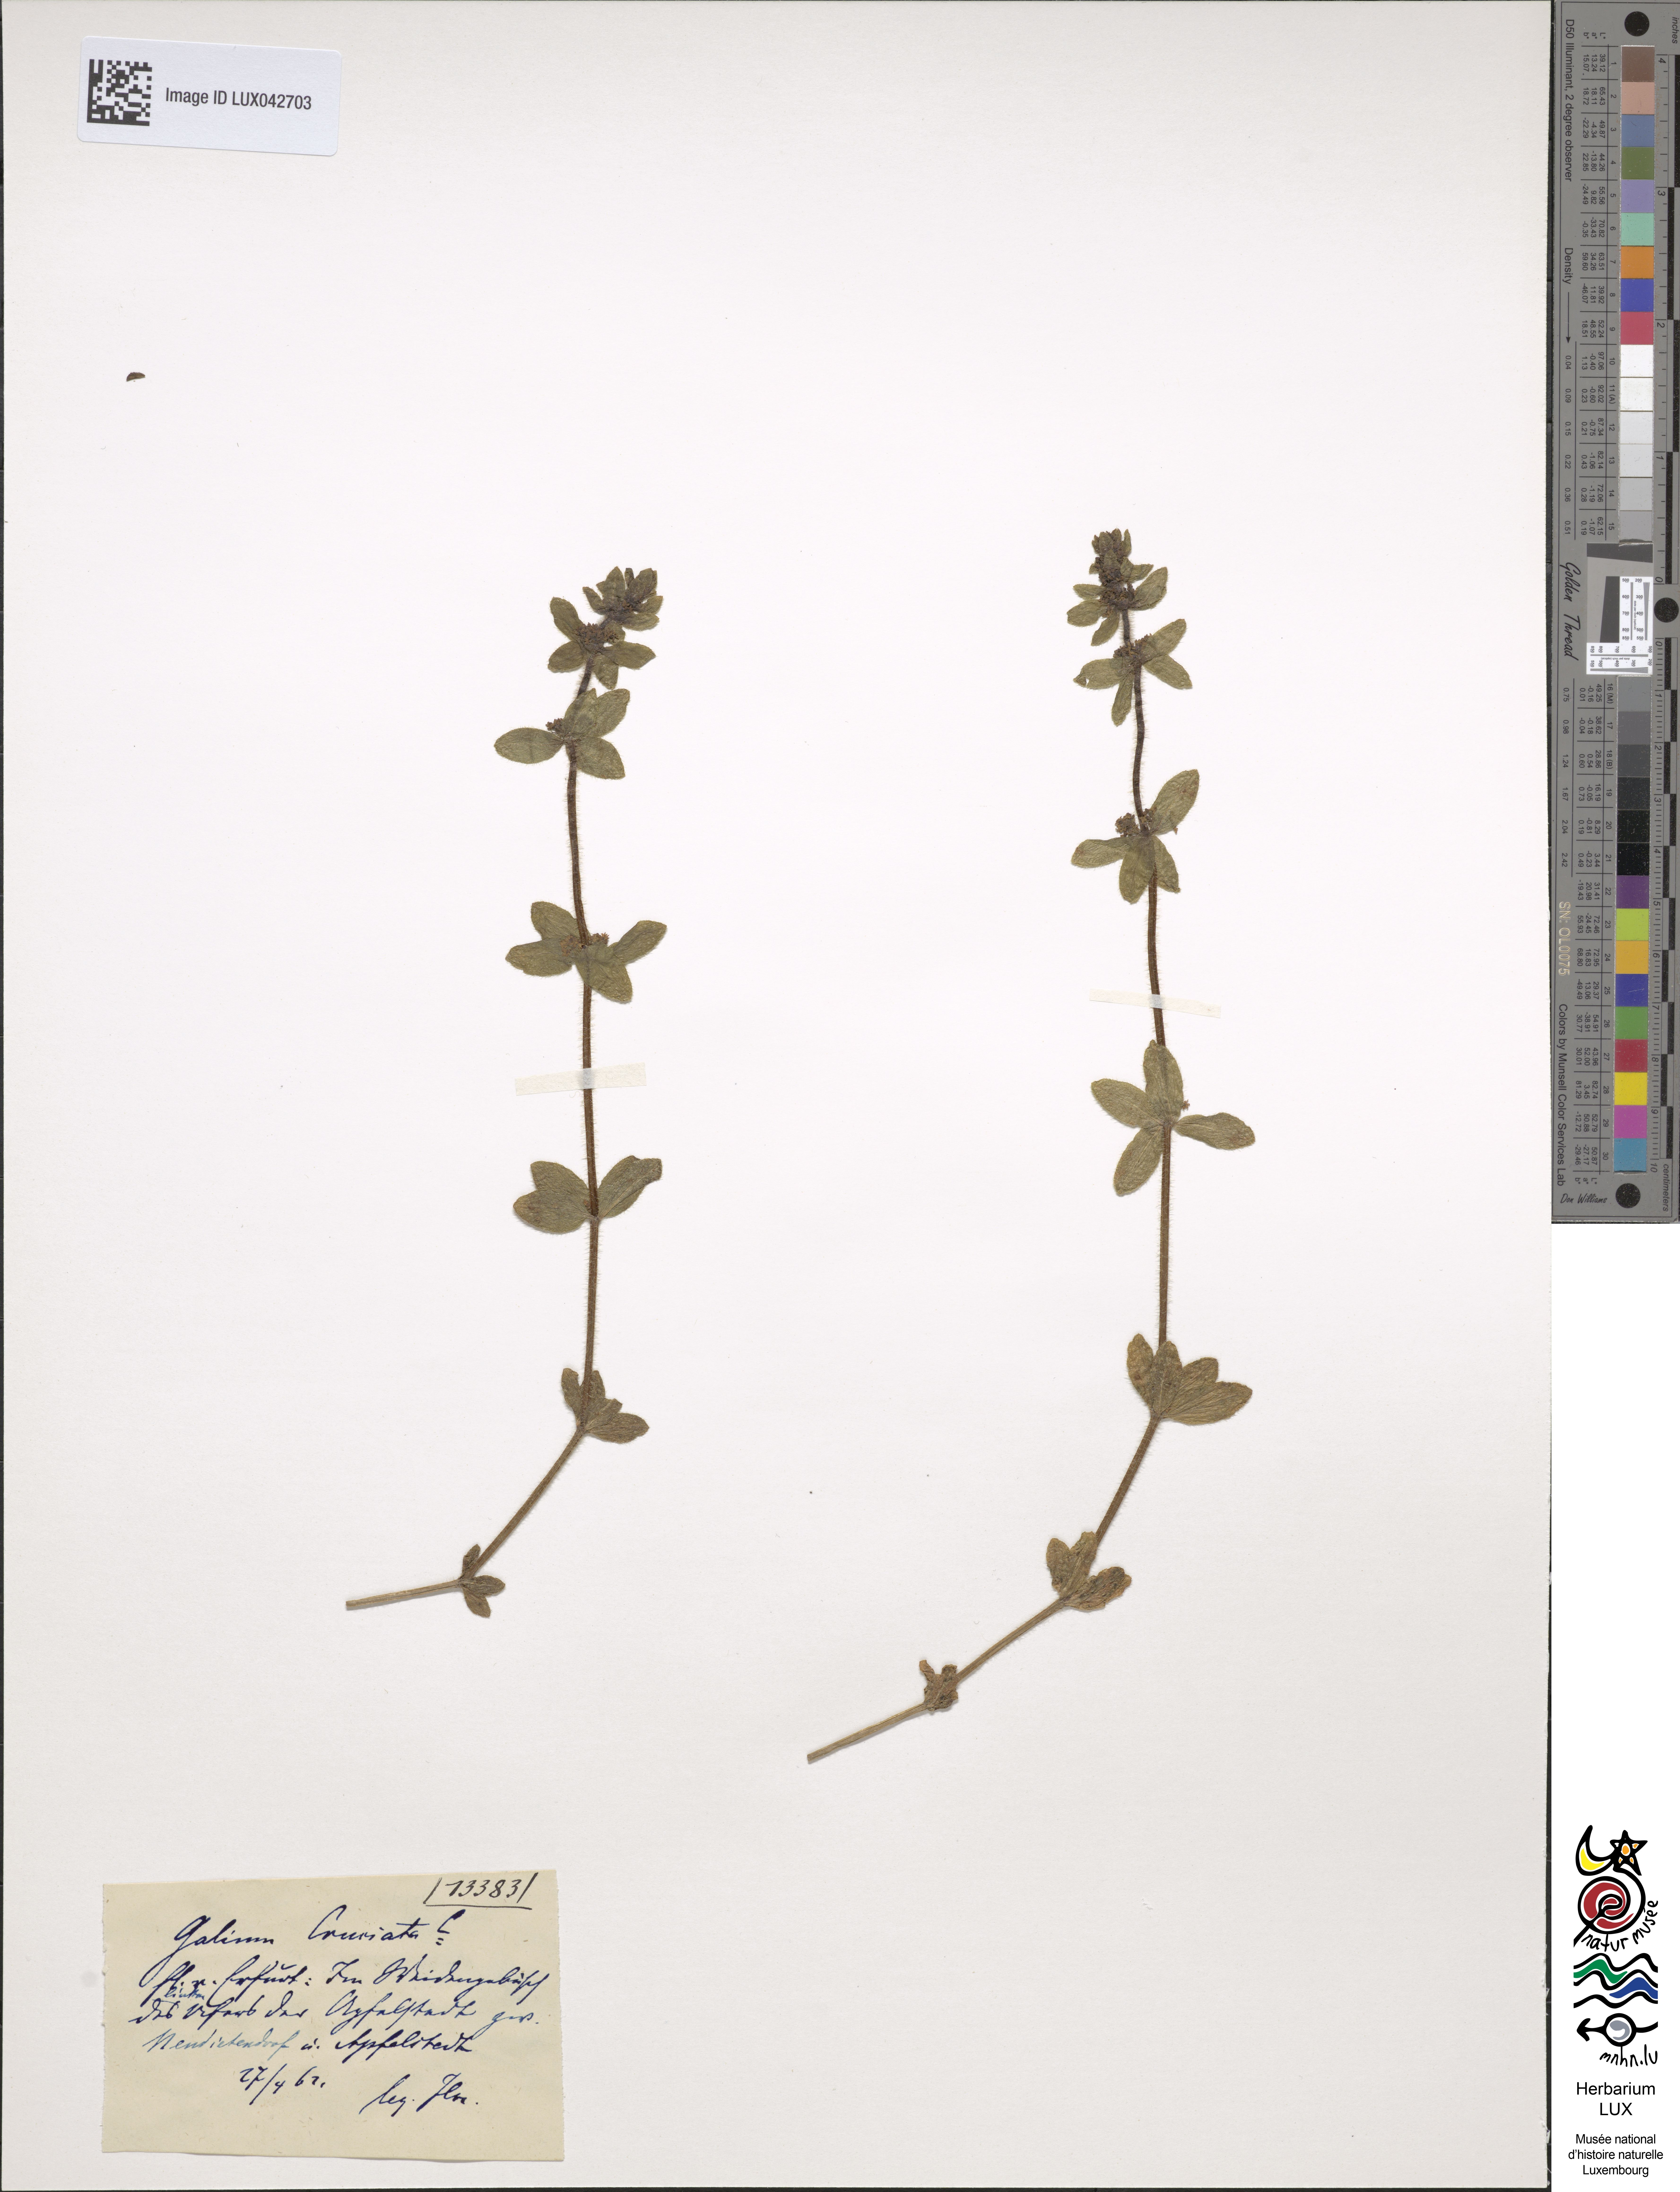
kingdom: Plantae
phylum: Tracheophyta
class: Magnoliopsida
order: Gentianales
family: Rubiaceae
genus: Cruciata
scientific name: Cruciata laevipes
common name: Crosswort
